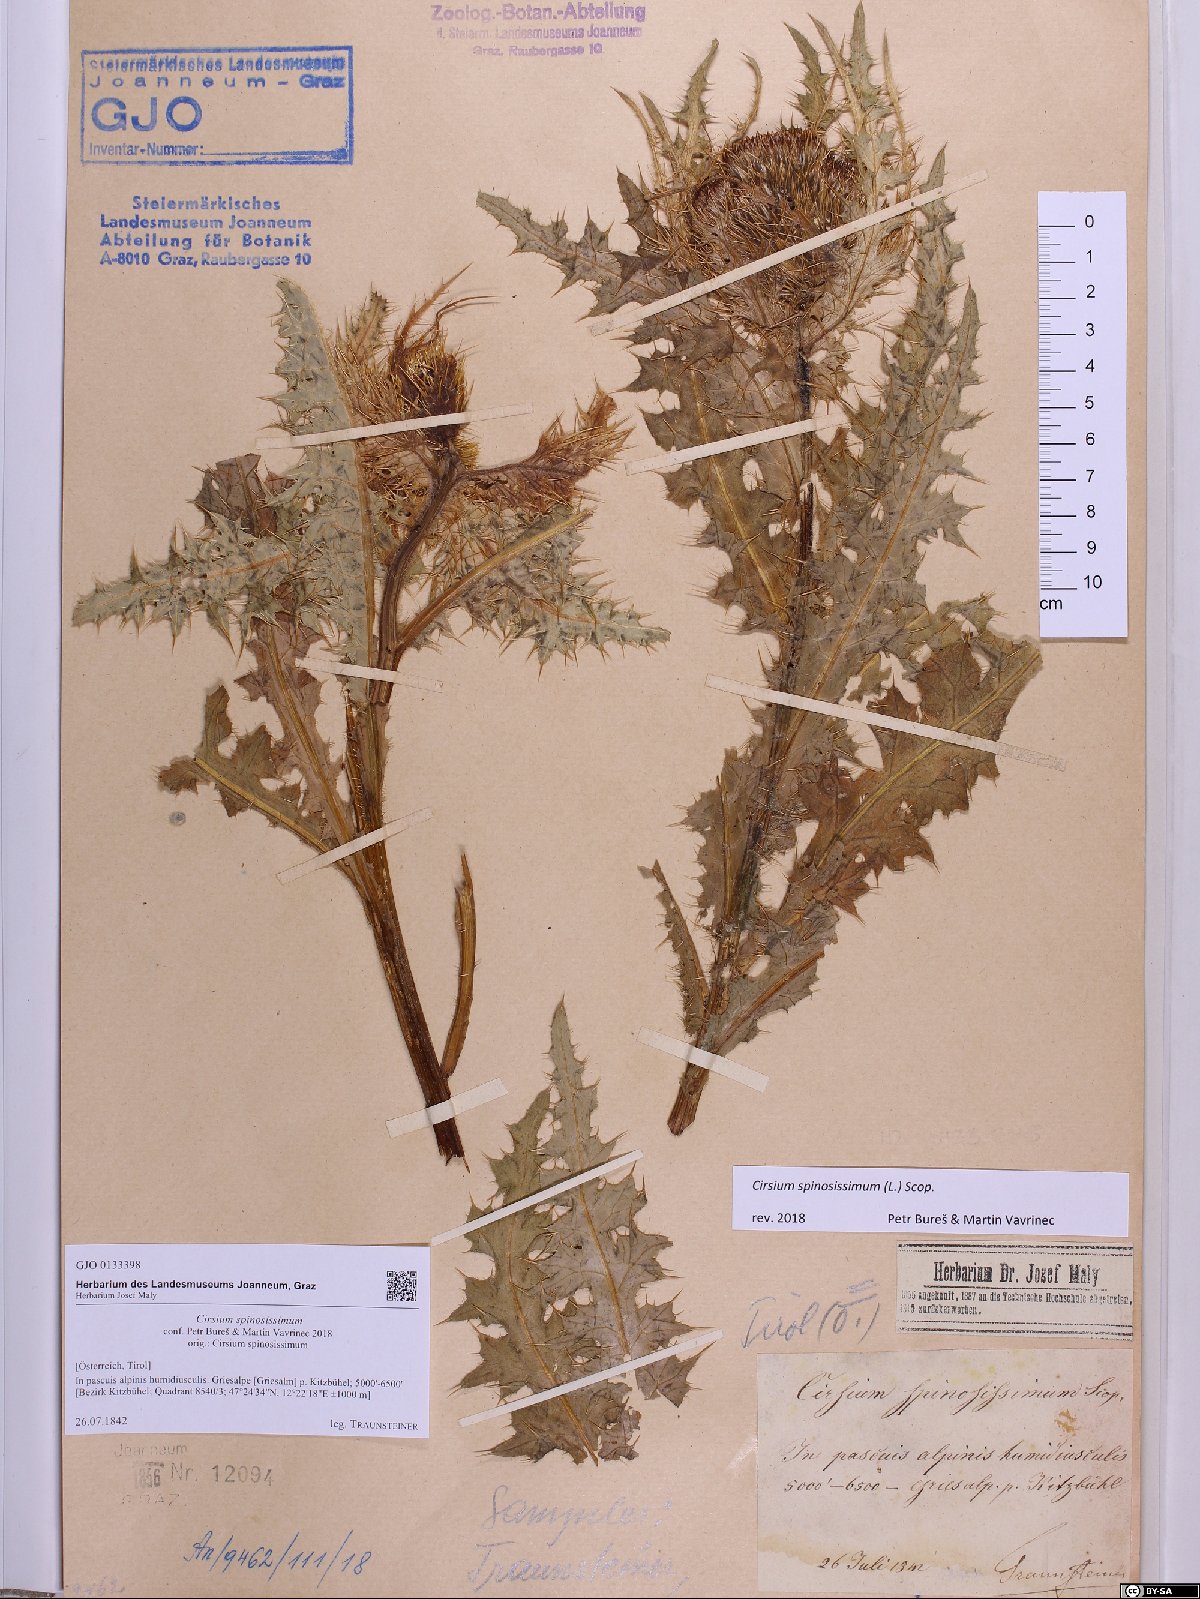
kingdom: Plantae
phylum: Tracheophyta
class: Magnoliopsida
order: Asterales
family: Asteraceae
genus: Cirsium
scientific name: Cirsium spinosissimum
